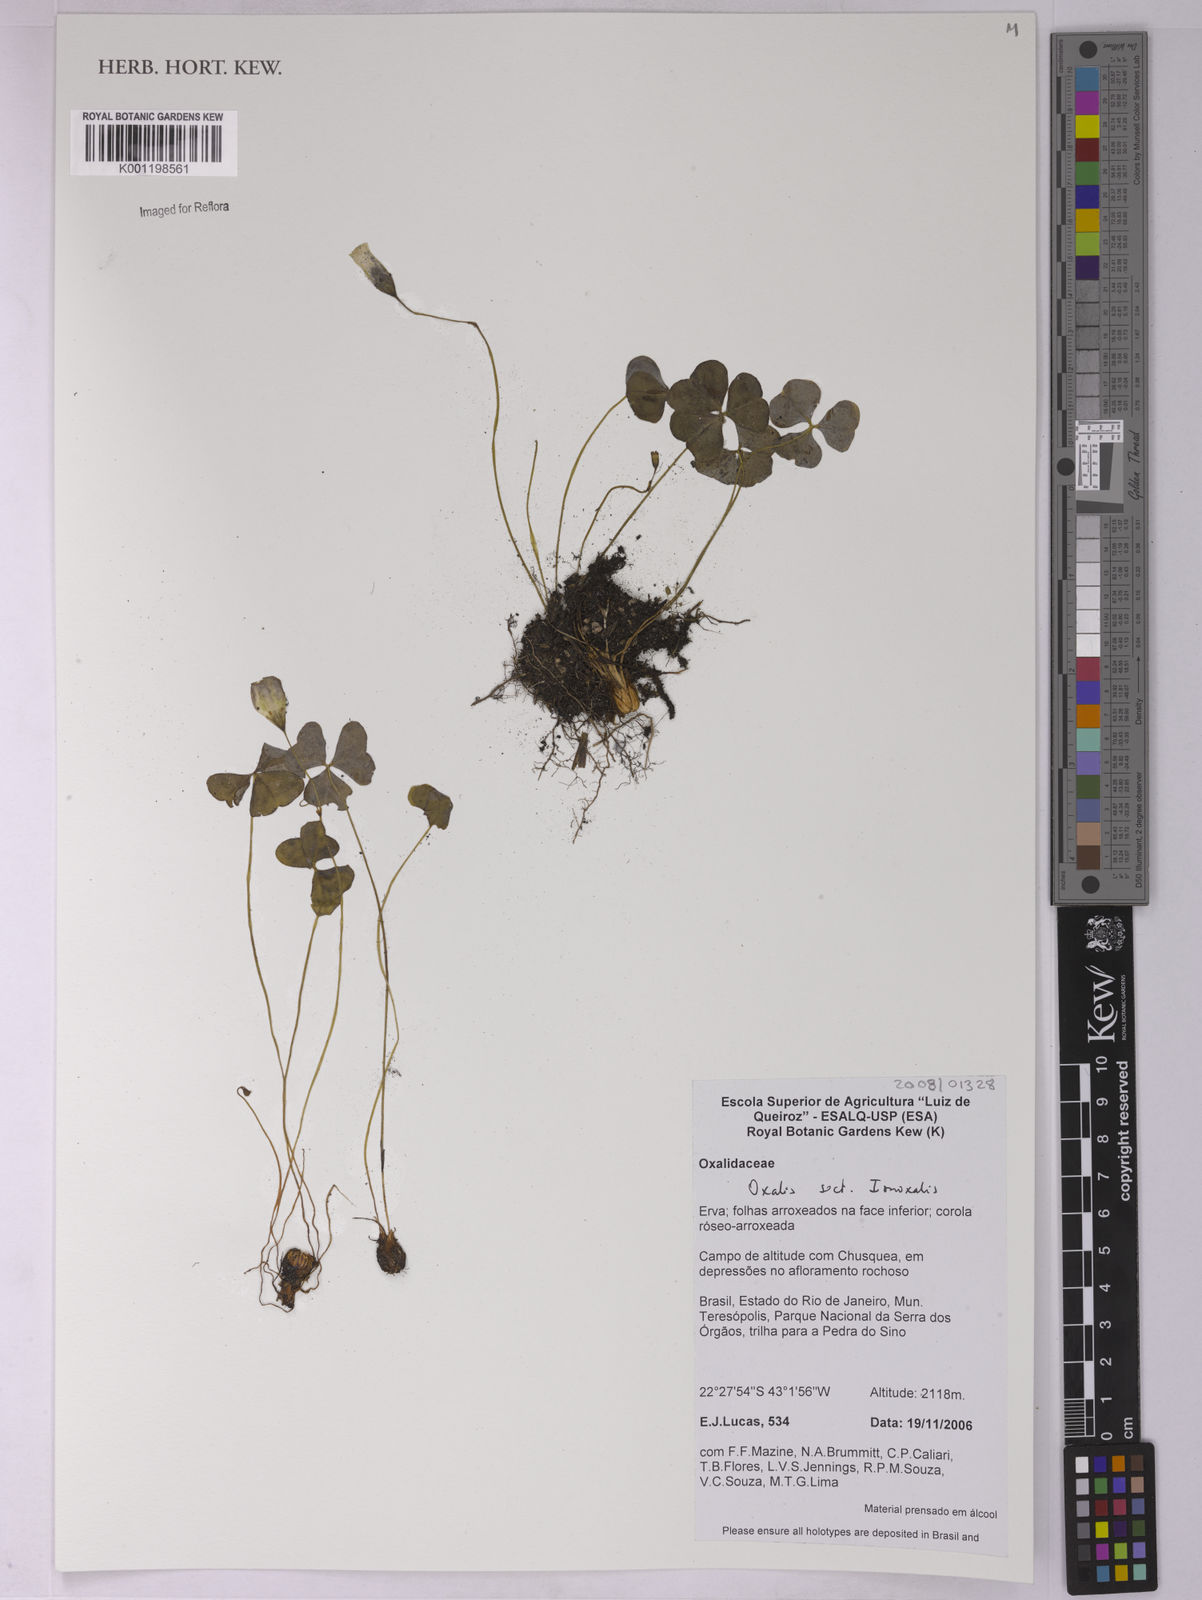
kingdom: Plantae
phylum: Tracheophyta
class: Magnoliopsida
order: Oxalidales
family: Oxalidaceae
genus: Oxalis
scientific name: Oxalis
